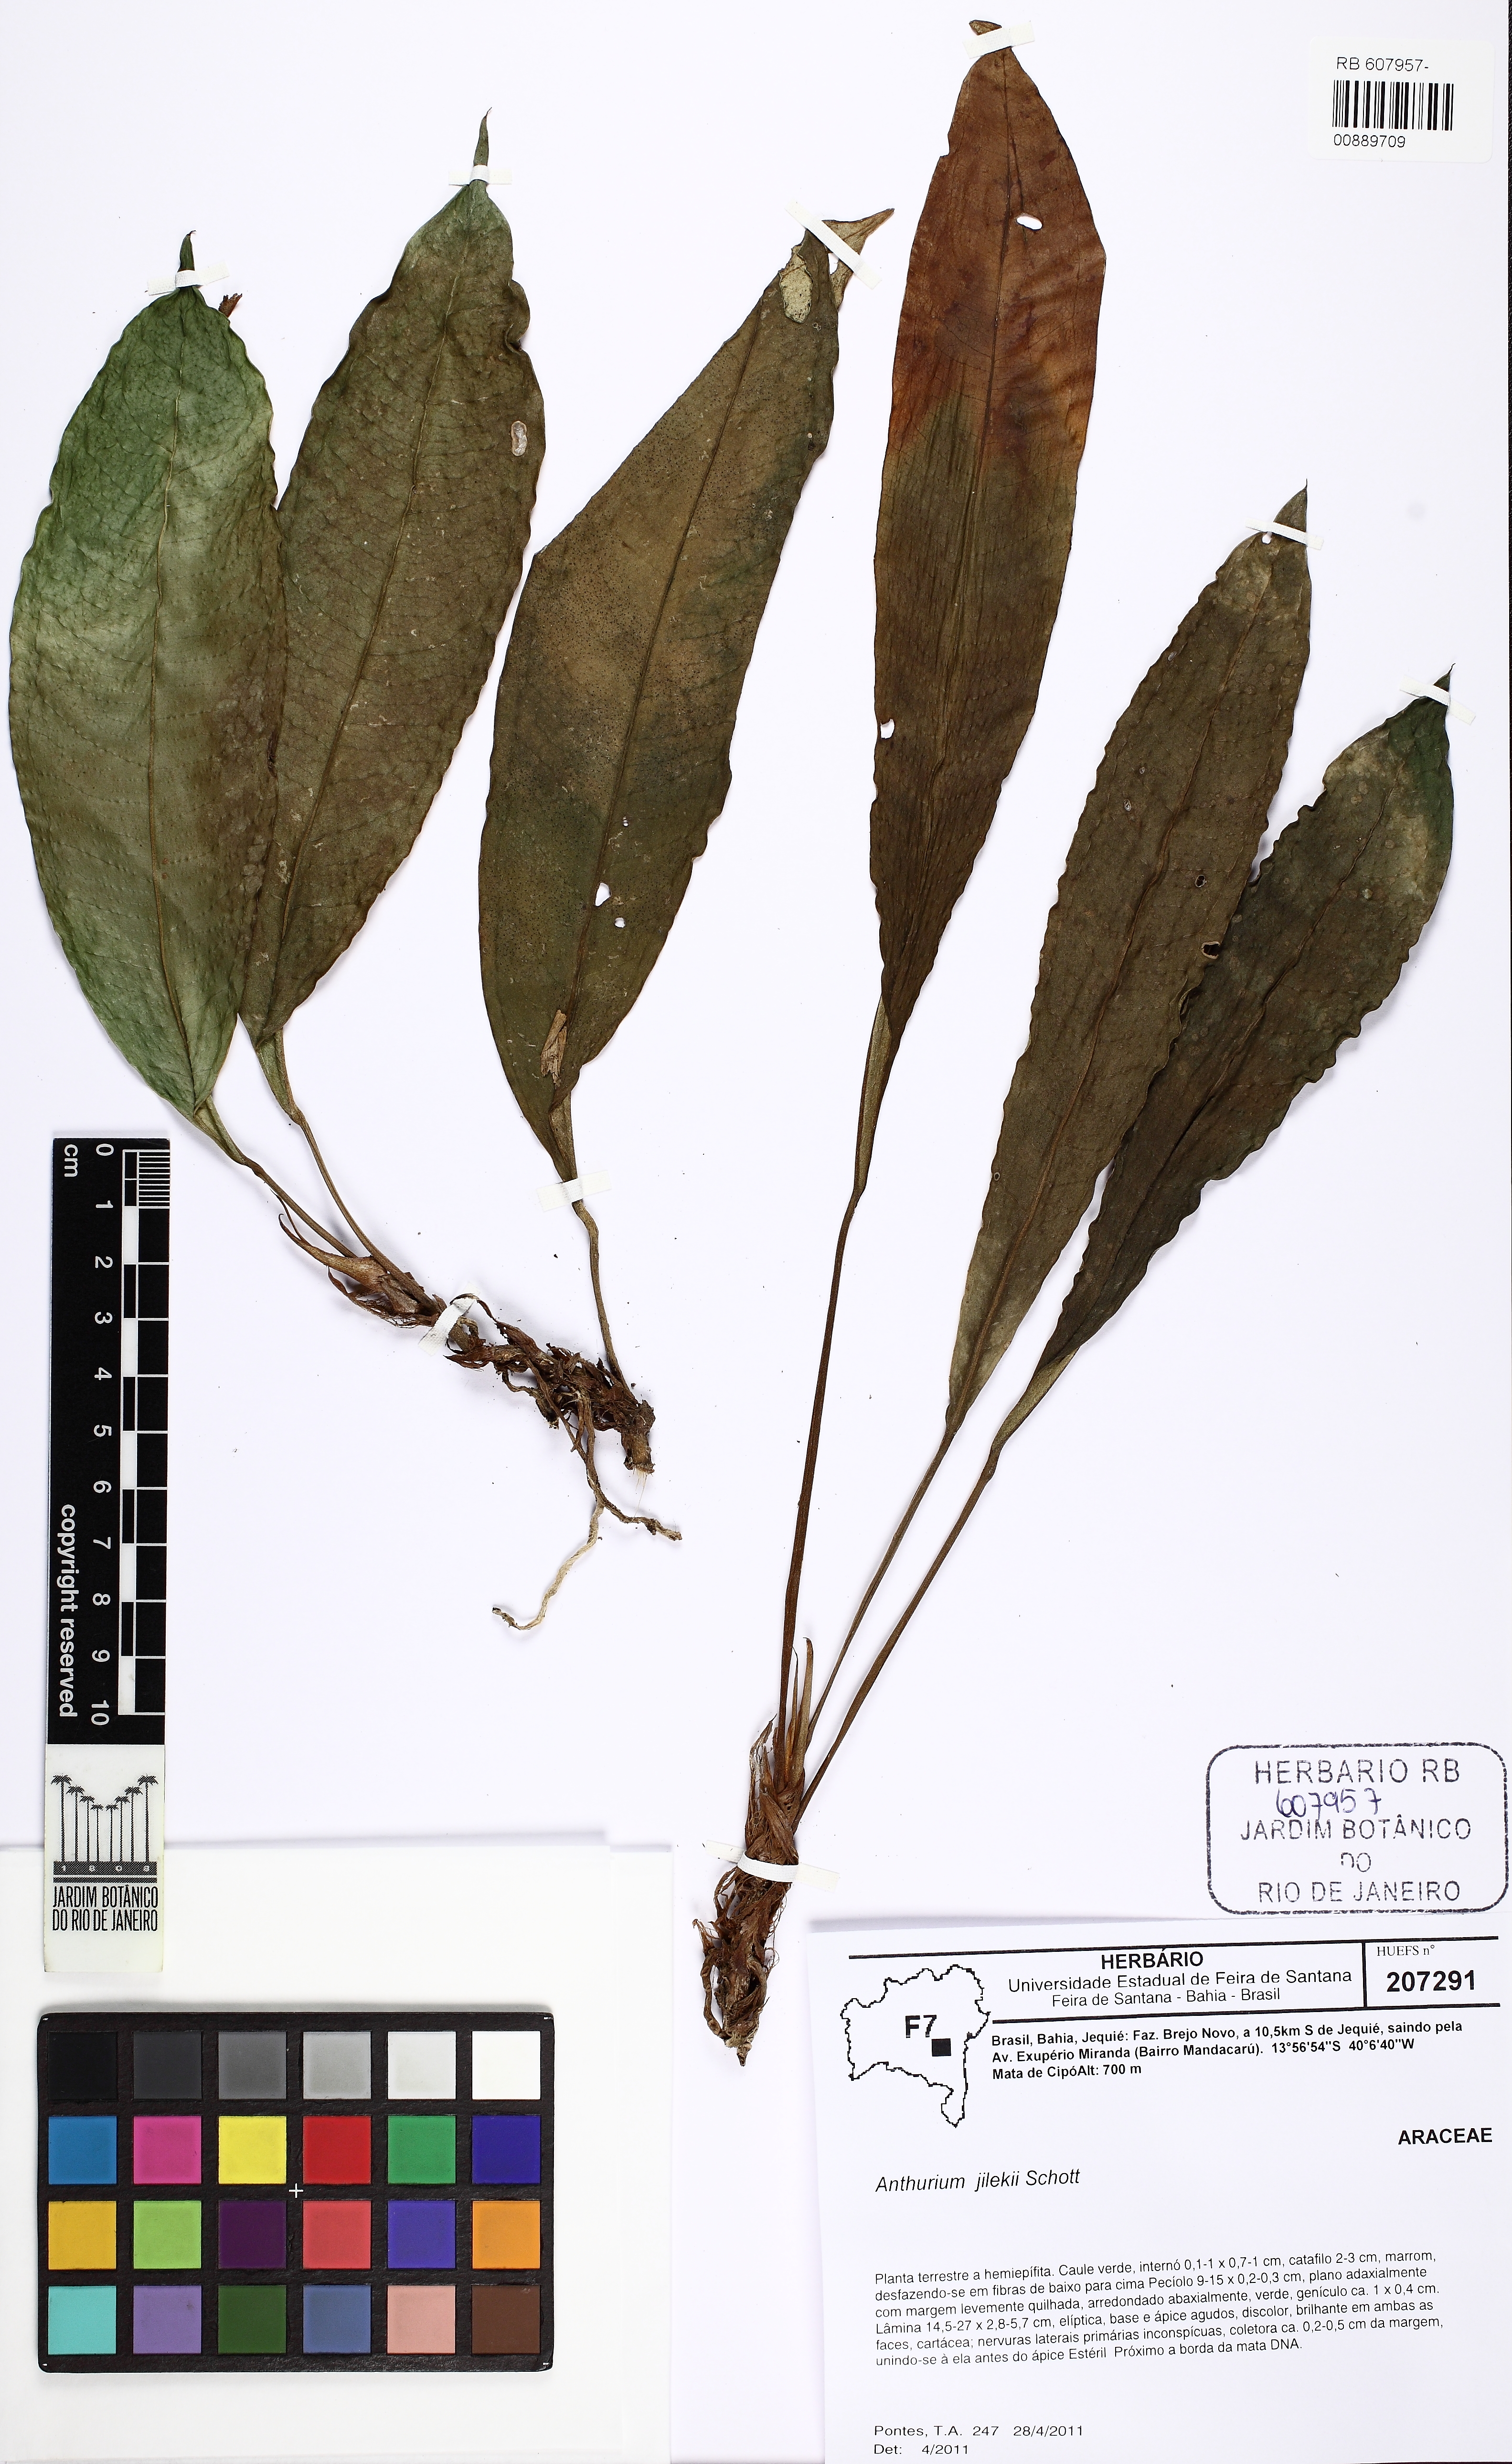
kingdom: Plantae
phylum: Tracheophyta
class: Liliopsida
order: Alismatales
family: Araceae
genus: Anthurium
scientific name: Anthurium jilekii
